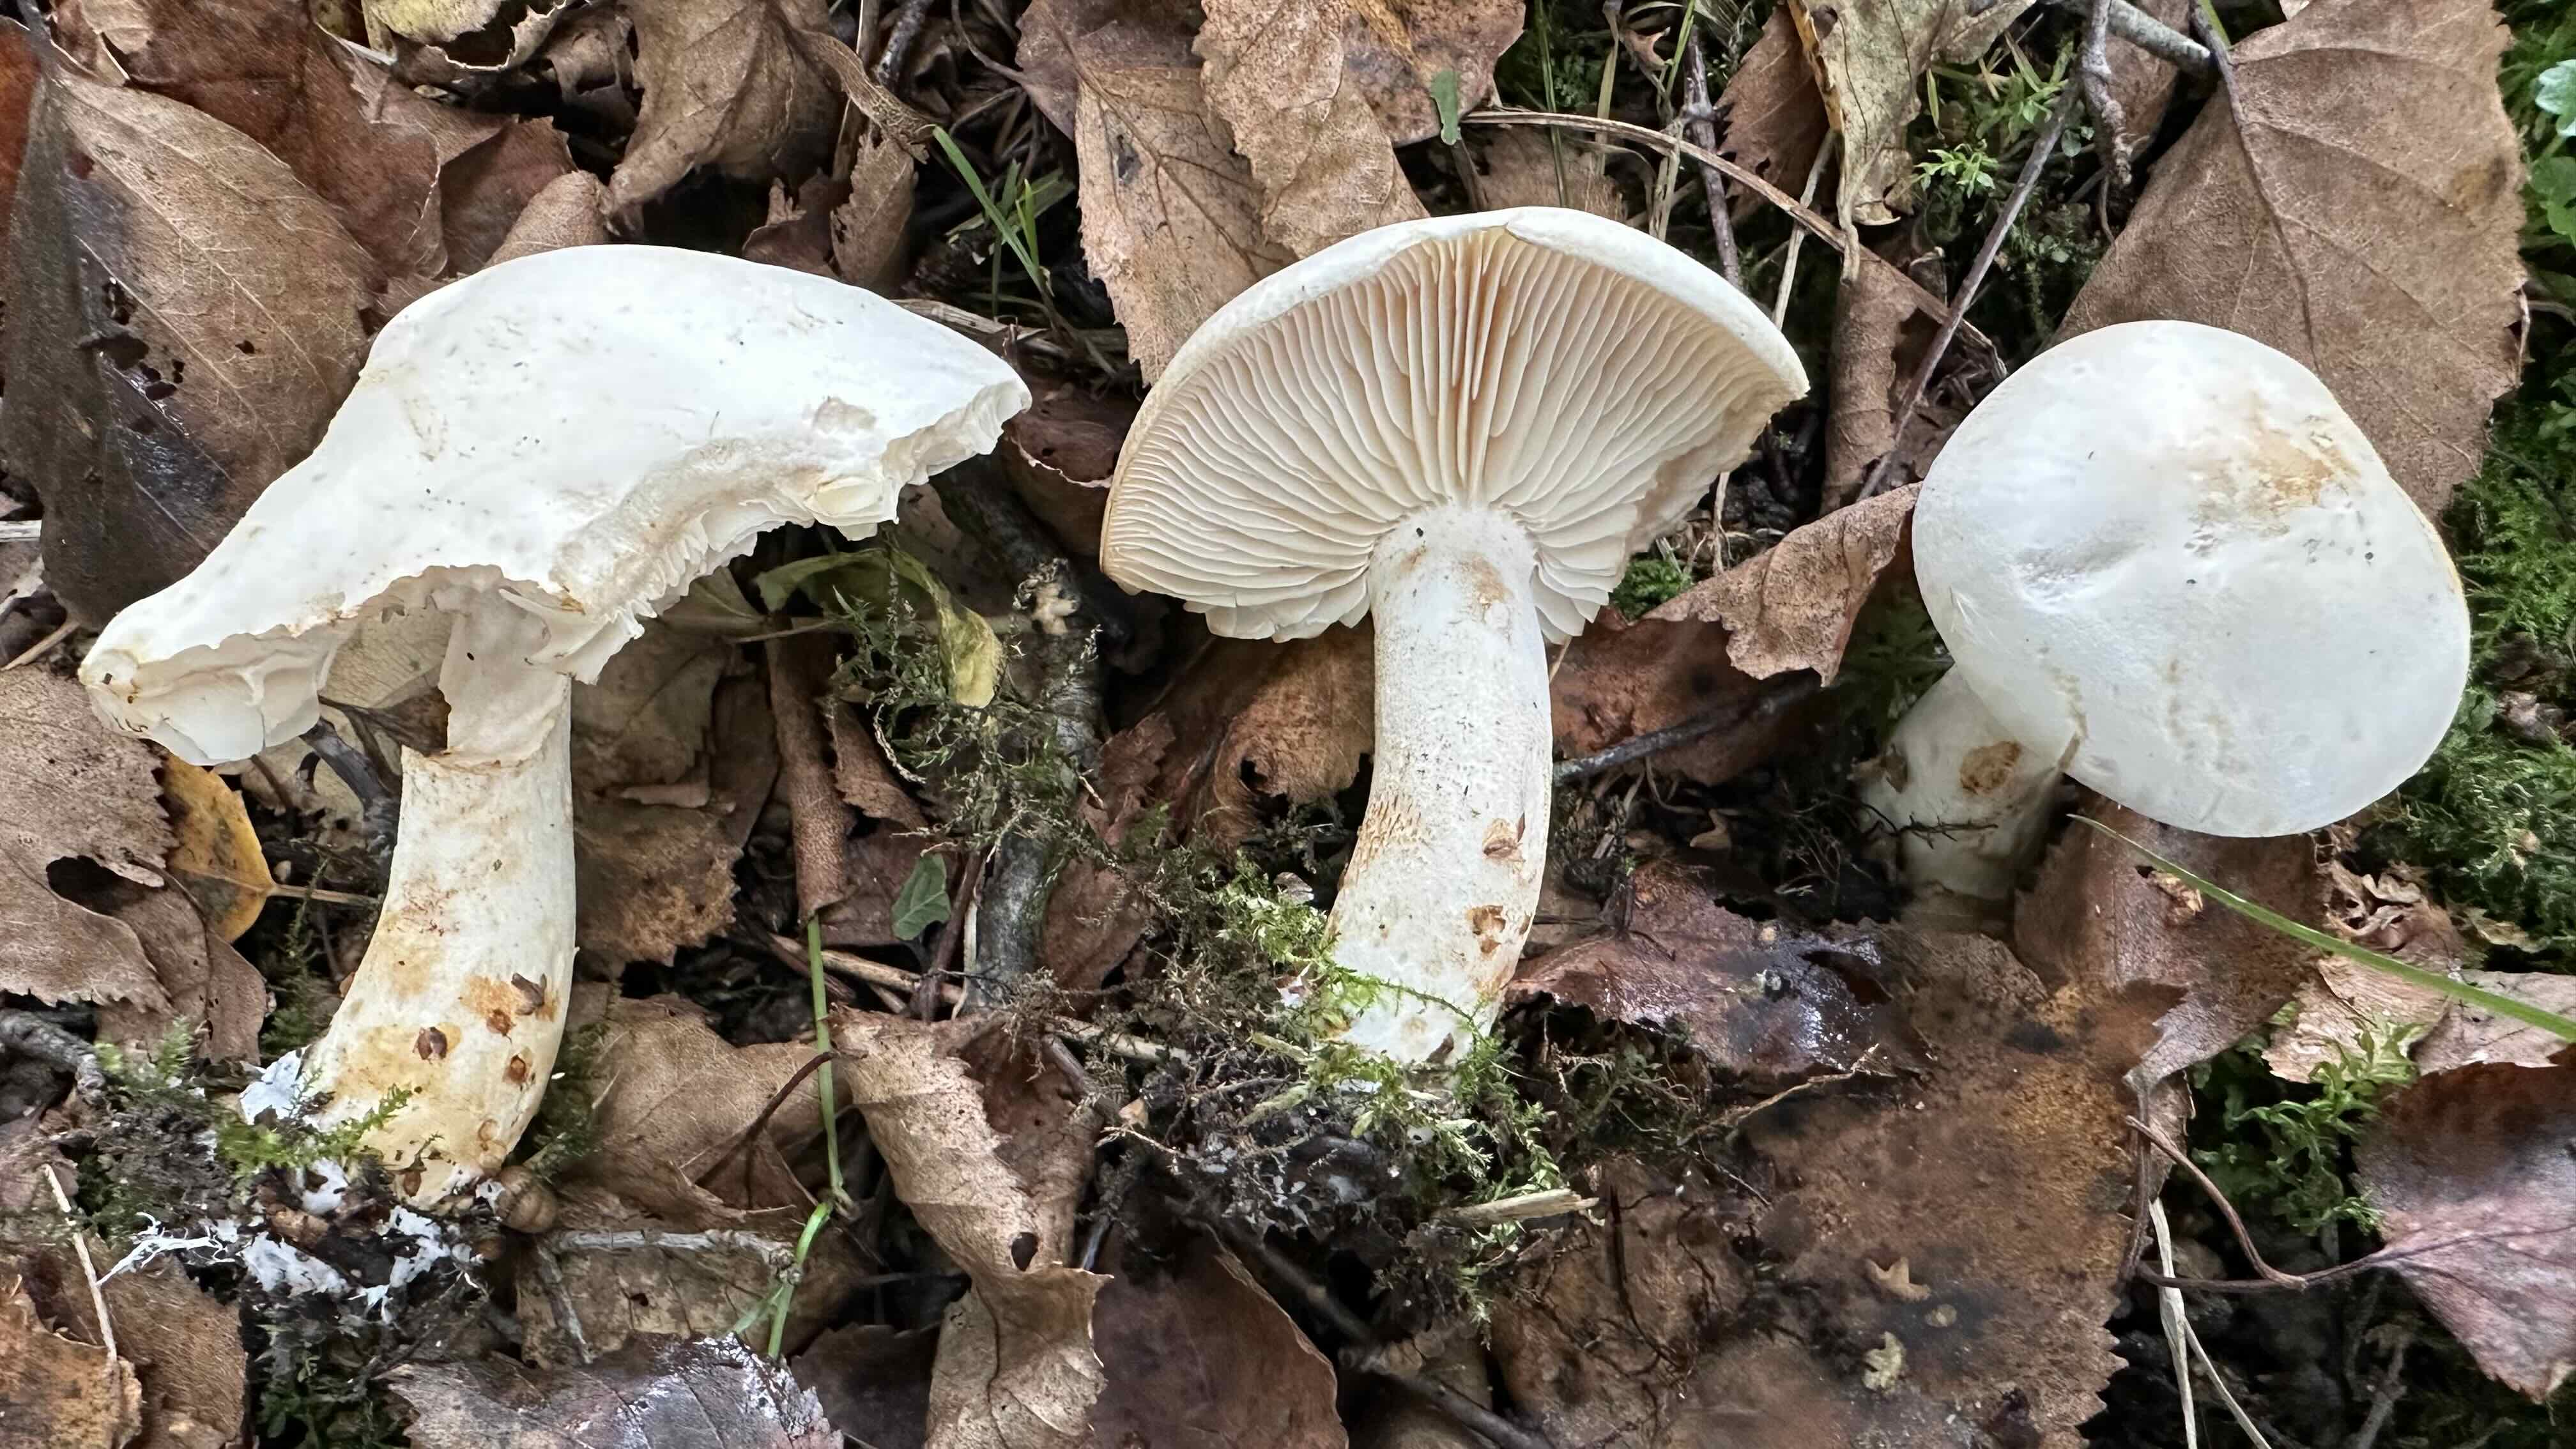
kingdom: Fungi
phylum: Basidiomycota
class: Agaricomycetes
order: Agaricales
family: Tricholomataceae
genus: Tricholoma
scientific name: Tricholoma stiparophyllum
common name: hvid ridderhat
